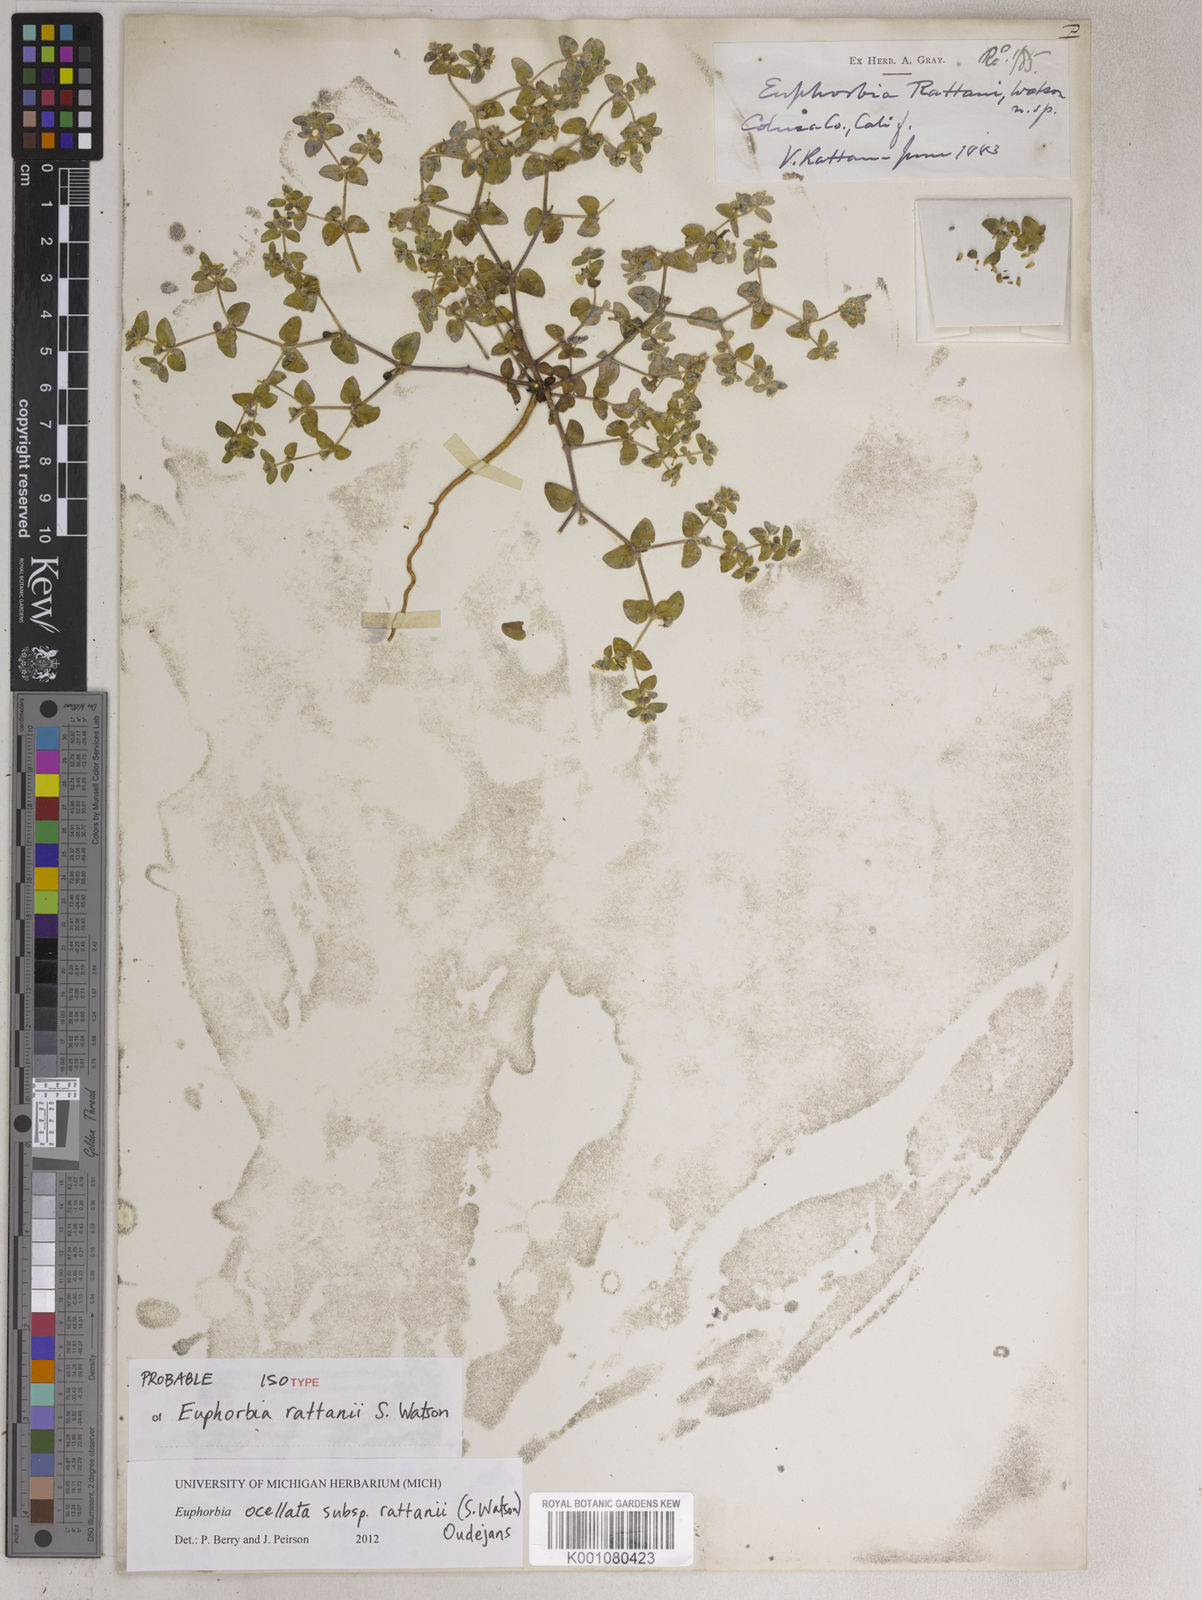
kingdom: Plantae
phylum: Tracheophyta
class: Magnoliopsida
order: Malpighiales
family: Euphorbiaceae
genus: Euphorbia
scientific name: Euphorbia ocellata
